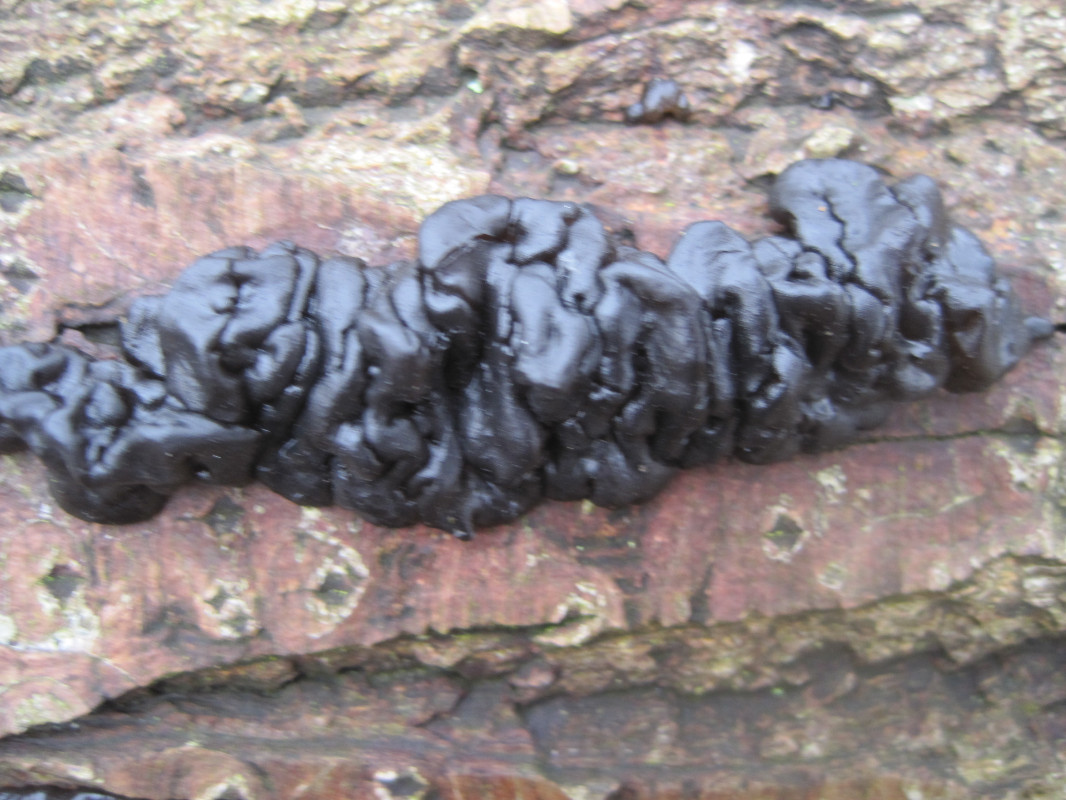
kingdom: Fungi
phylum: Basidiomycota
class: Agaricomycetes
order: Auriculariales
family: Auriculariaceae
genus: Exidia
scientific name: Exidia nigricans
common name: almindelig bævretop
